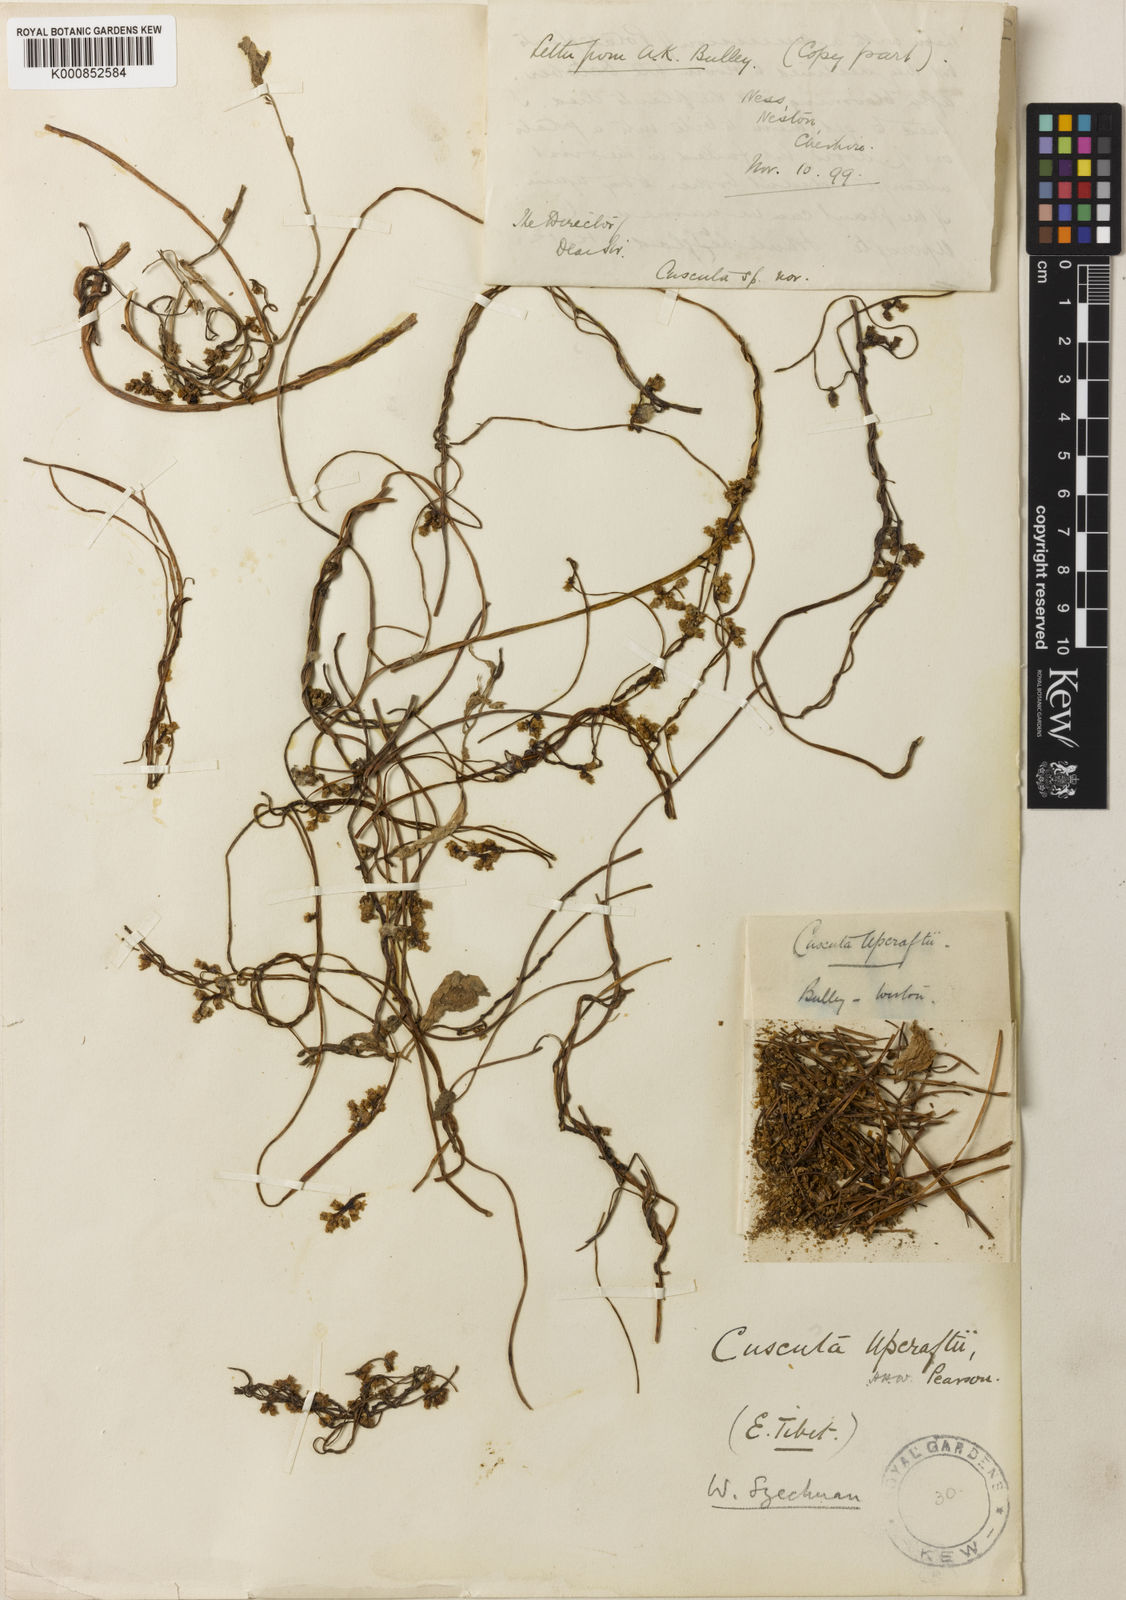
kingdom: Plantae
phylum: Tracheophyta
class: Magnoliopsida
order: Solanales
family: Convolvulaceae
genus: Cuscuta
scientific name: Cuscuta japonica
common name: Japanese dodder
